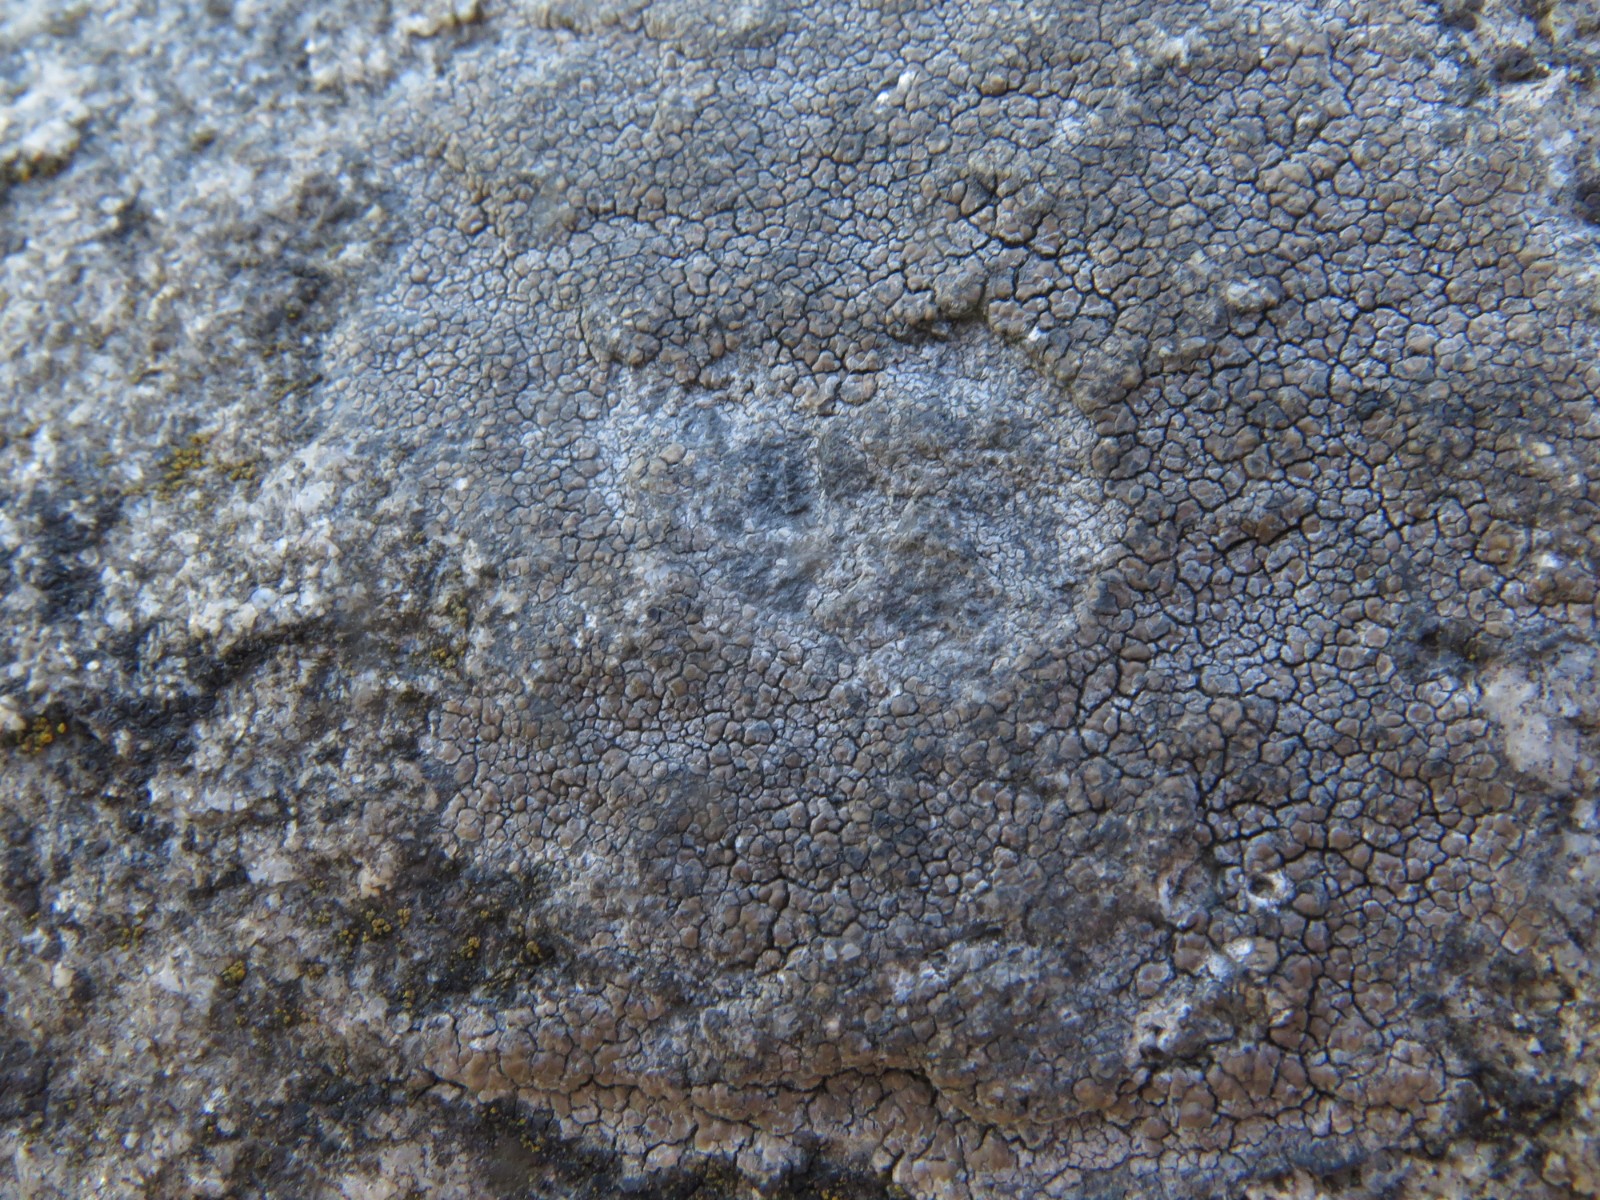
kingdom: Fungi
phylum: Ascomycota
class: Lecanoromycetes
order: Lecideales
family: Lecideaceae
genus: Lecidea
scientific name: Lecidea
